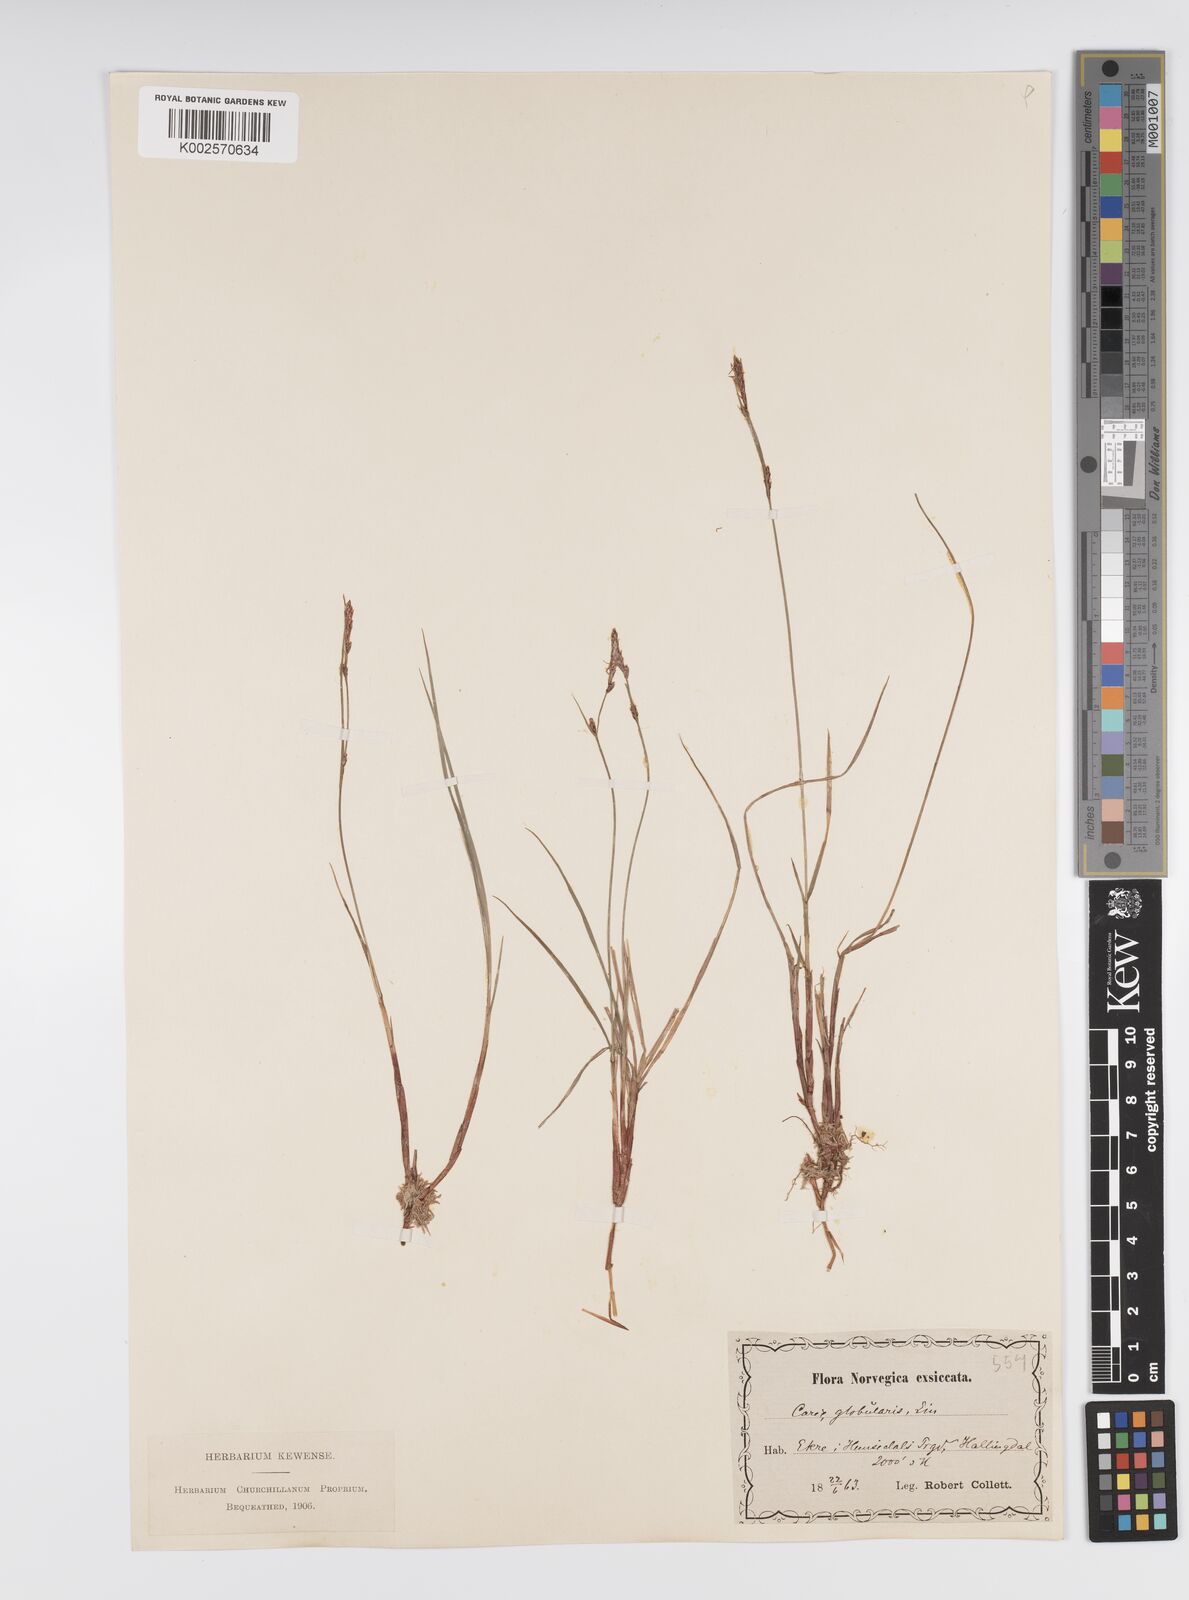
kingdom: Plantae
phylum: Tracheophyta
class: Liliopsida
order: Poales
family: Cyperaceae
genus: Carex
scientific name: Carex globularis
